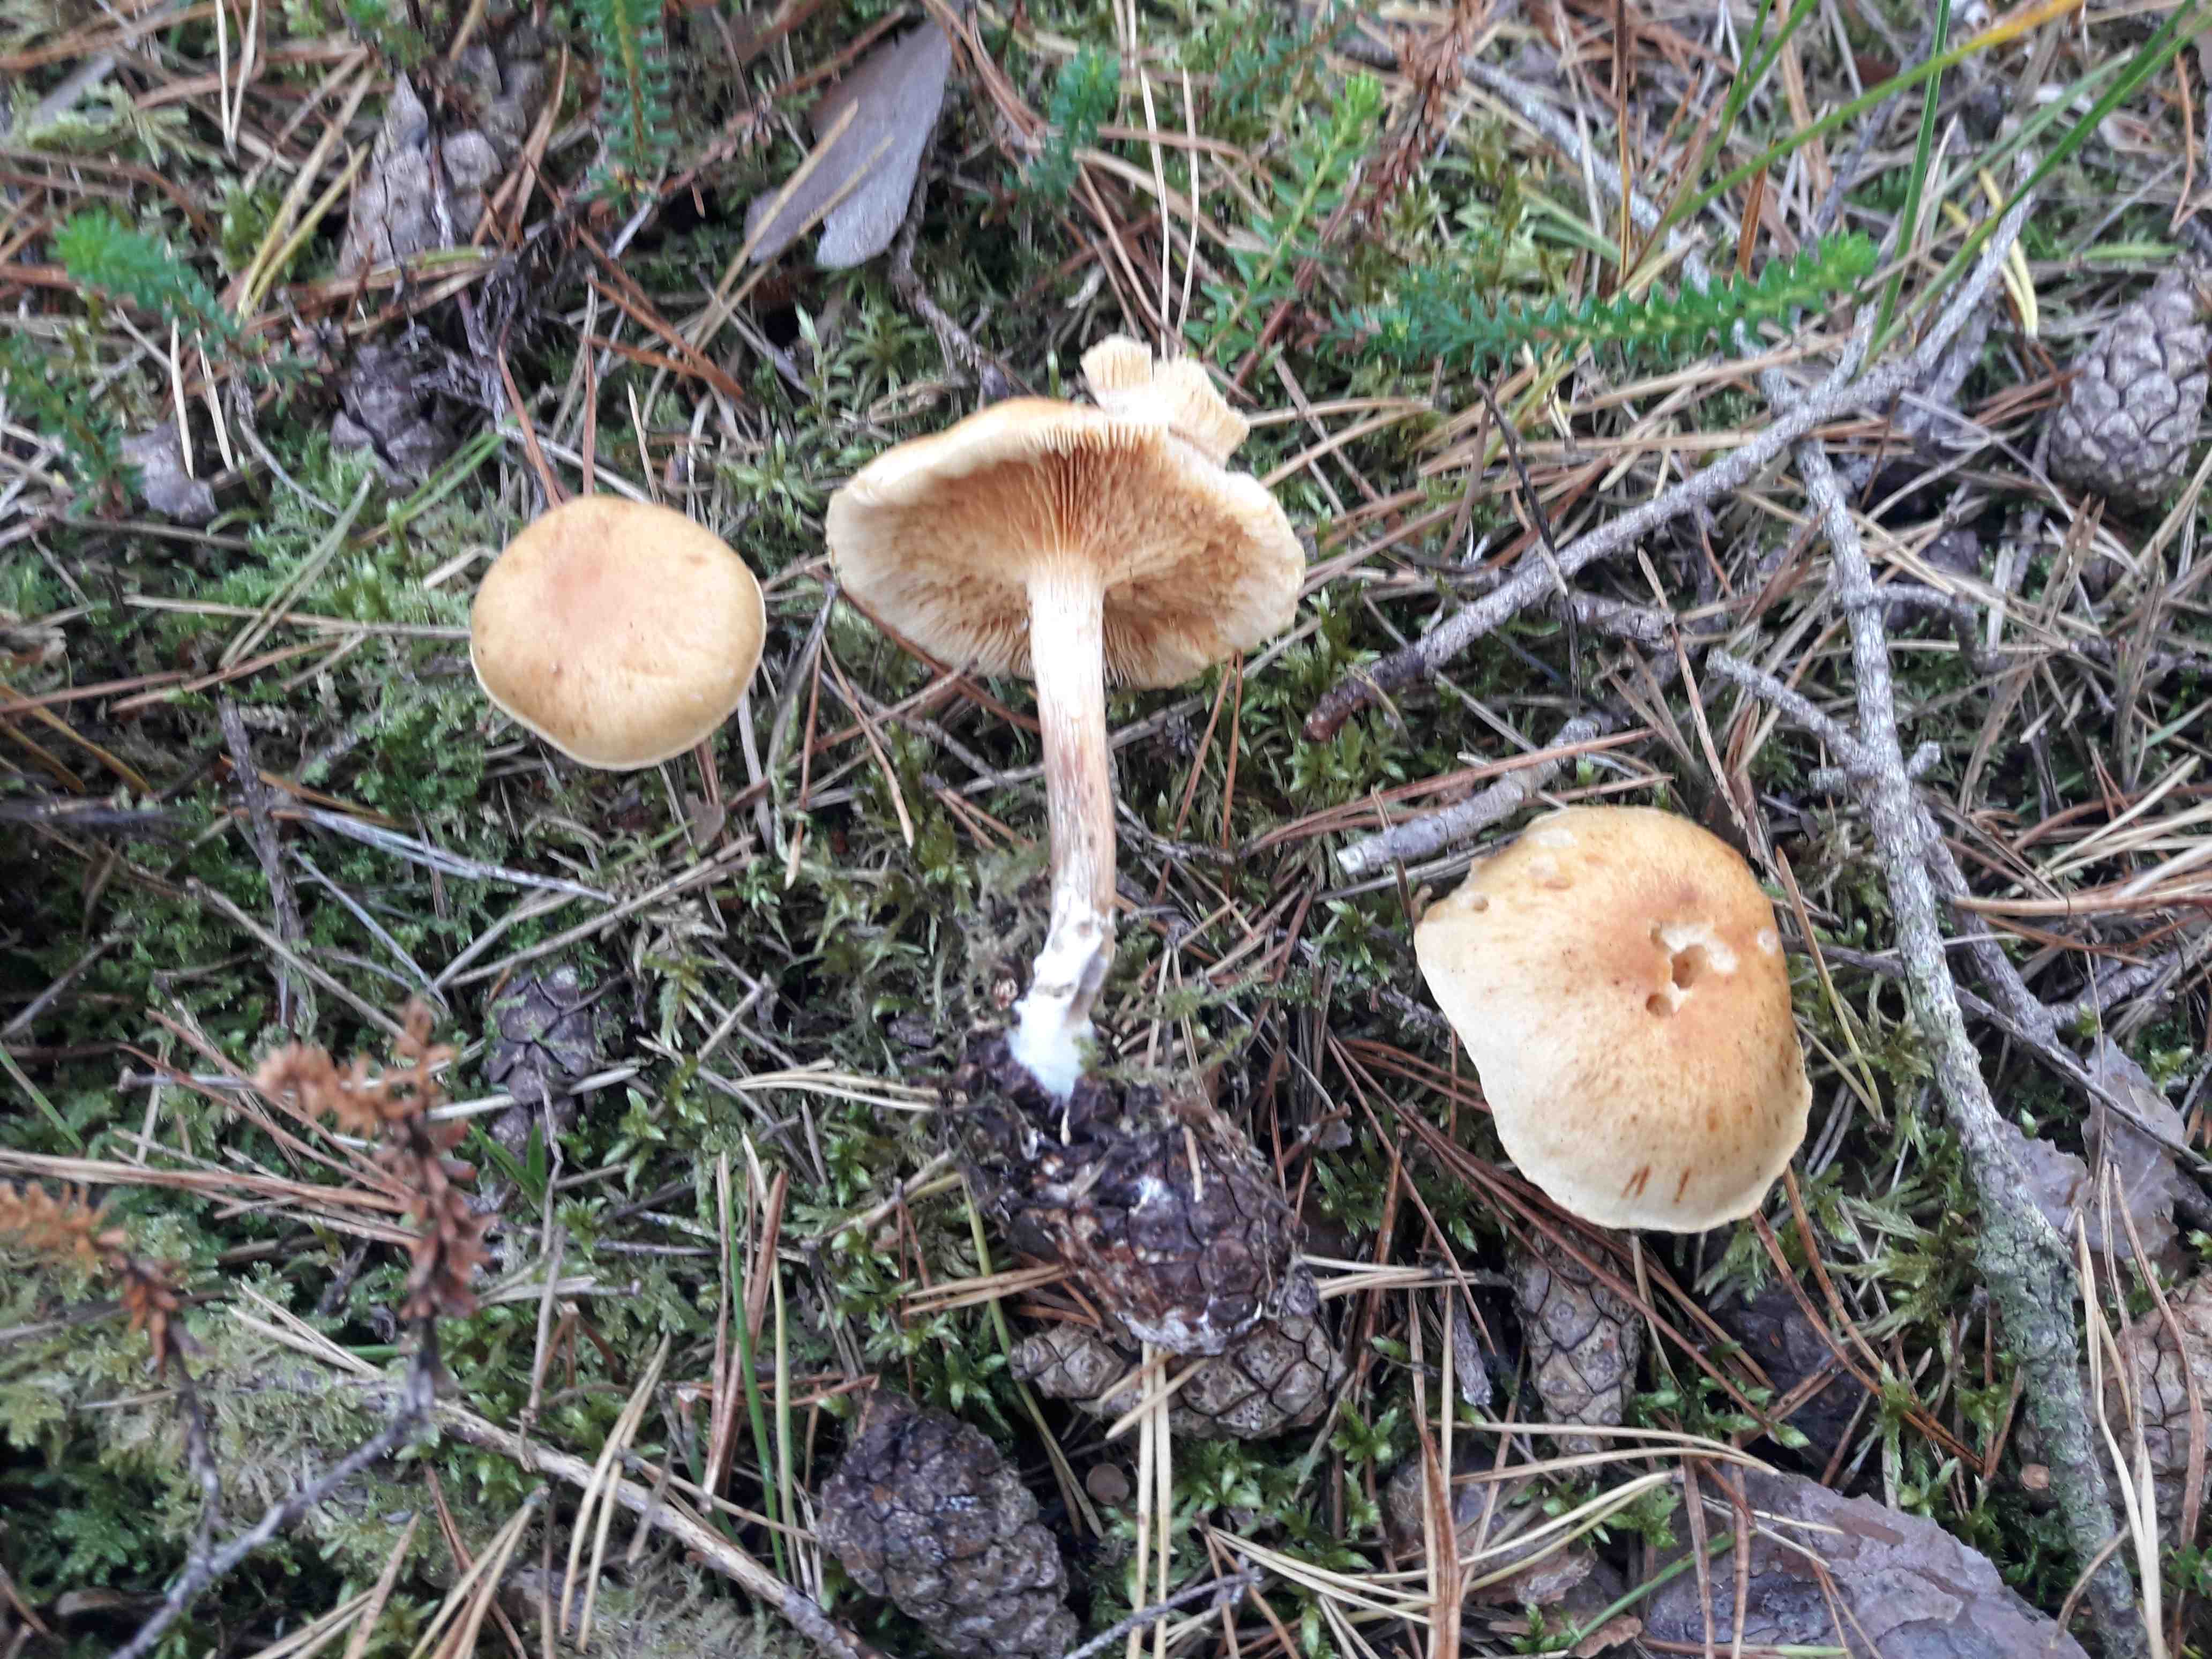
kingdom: Fungi
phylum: Basidiomycota
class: Agaricomycetes
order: Agaricales
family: Hymenogastraceae
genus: Gymnopilus
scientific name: Gymnopilus penetrans
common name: plettet flammehat
